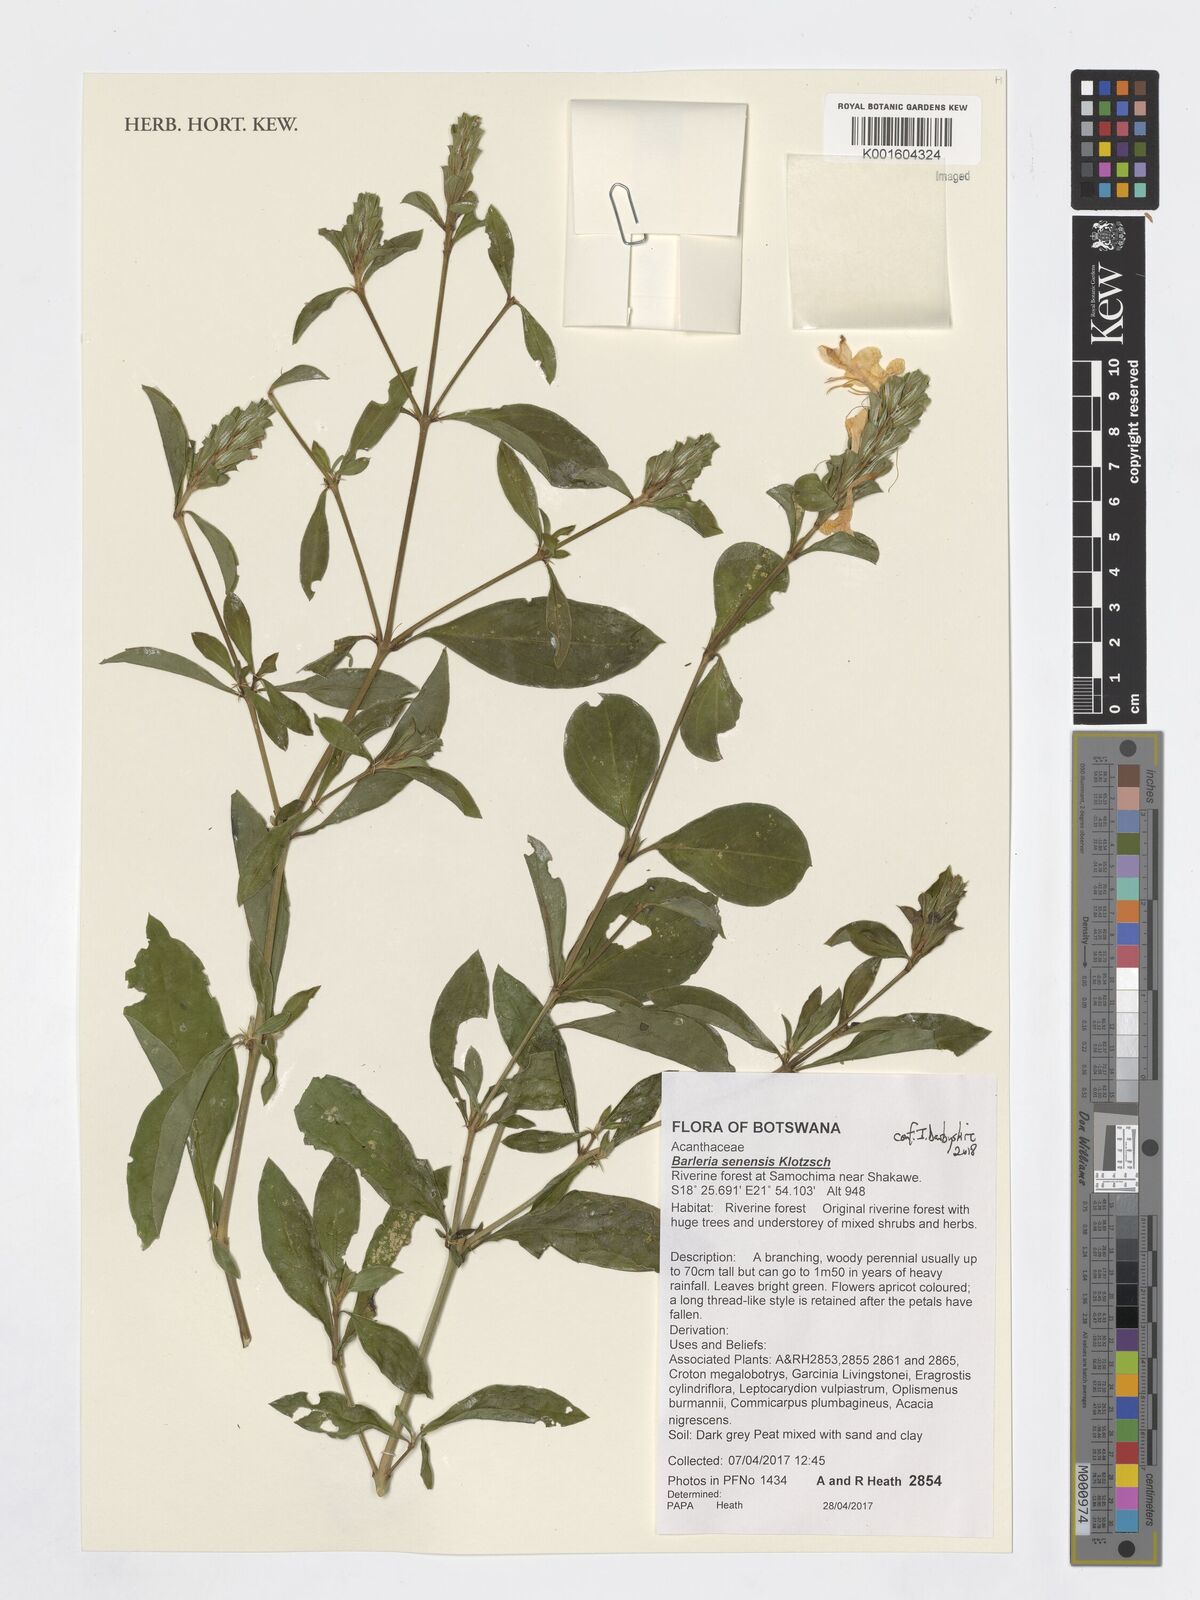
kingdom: Plantae
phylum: Tracheophyta
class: Magnoliopsida
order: Lamiales
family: Acanthaceae
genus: Barleria
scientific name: Barleria senensis
